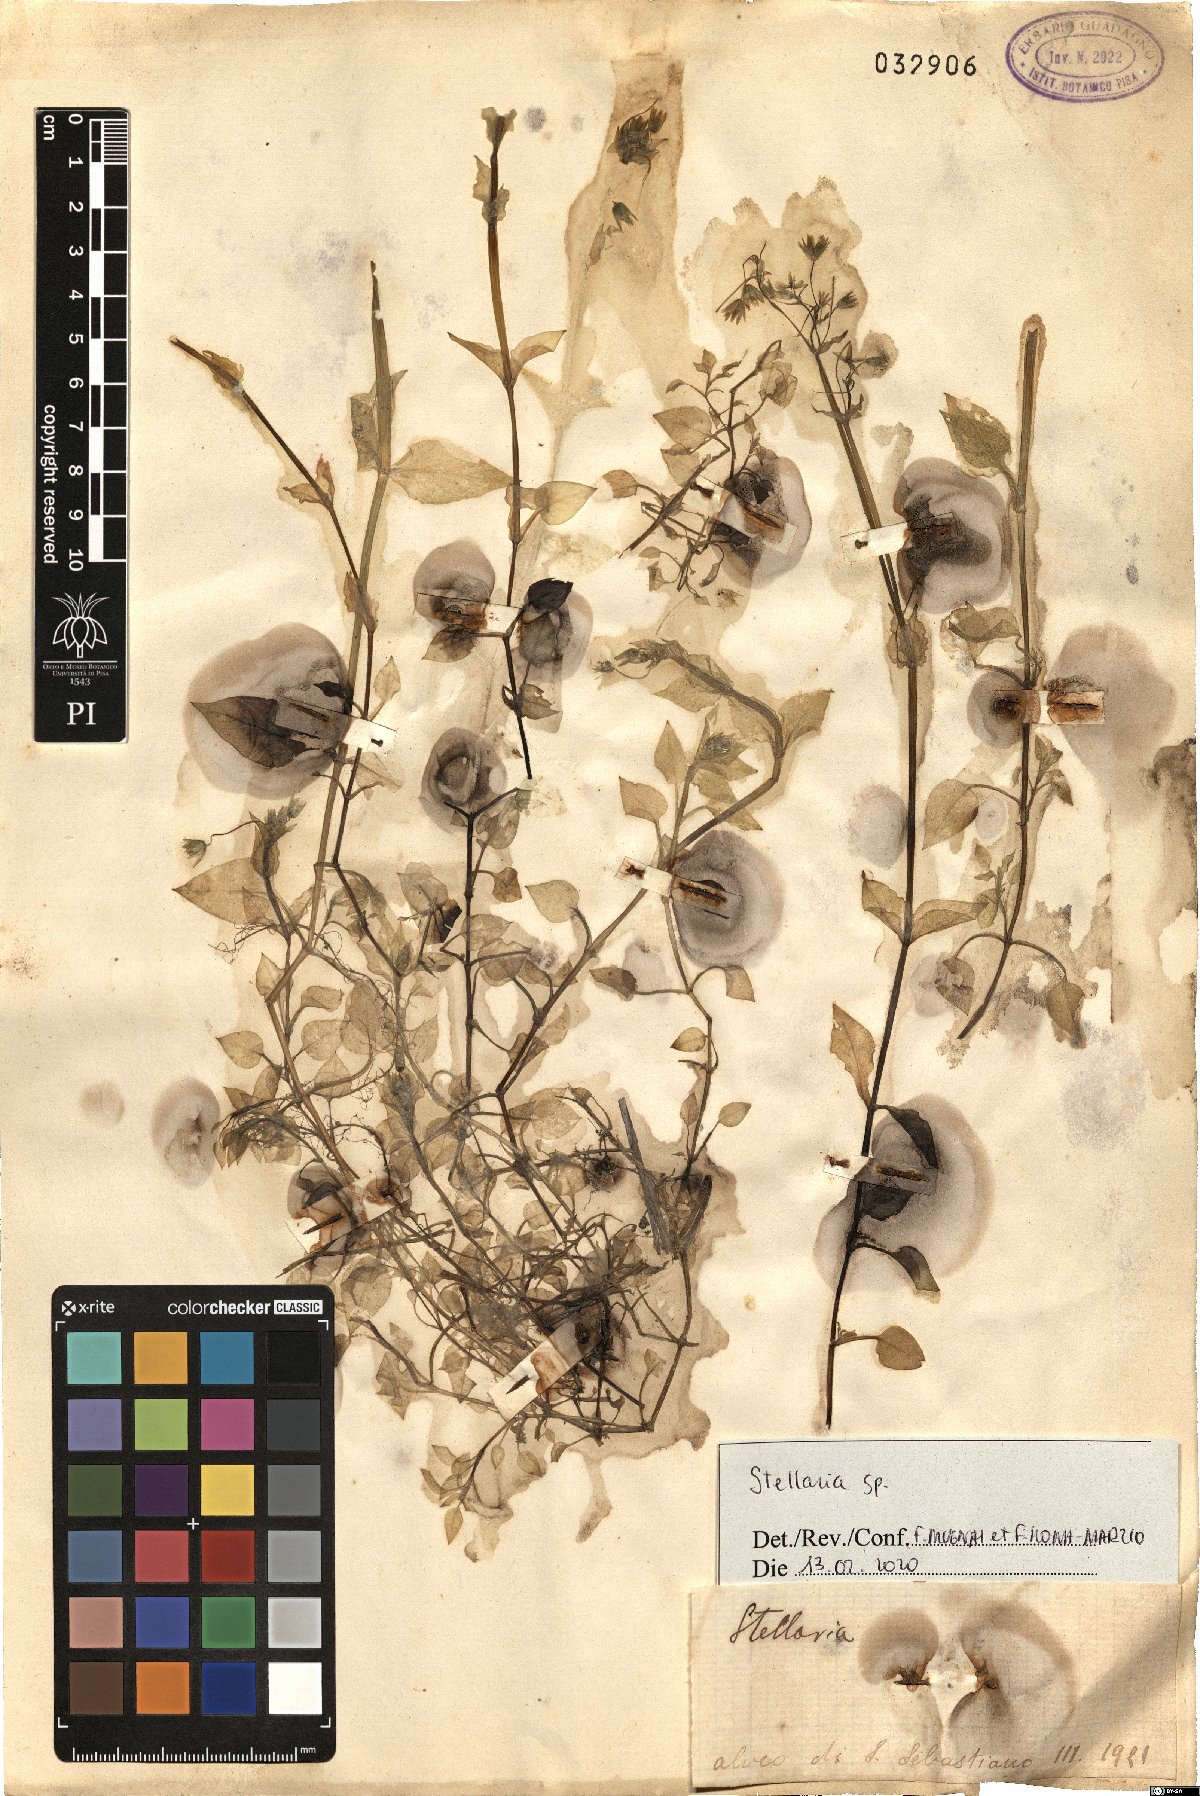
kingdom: Plantae
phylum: Tracheophyta
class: Magnoliopsida
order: Caryophyllales
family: Caryophyllaceae
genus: Stellaria
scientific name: Stellaria
